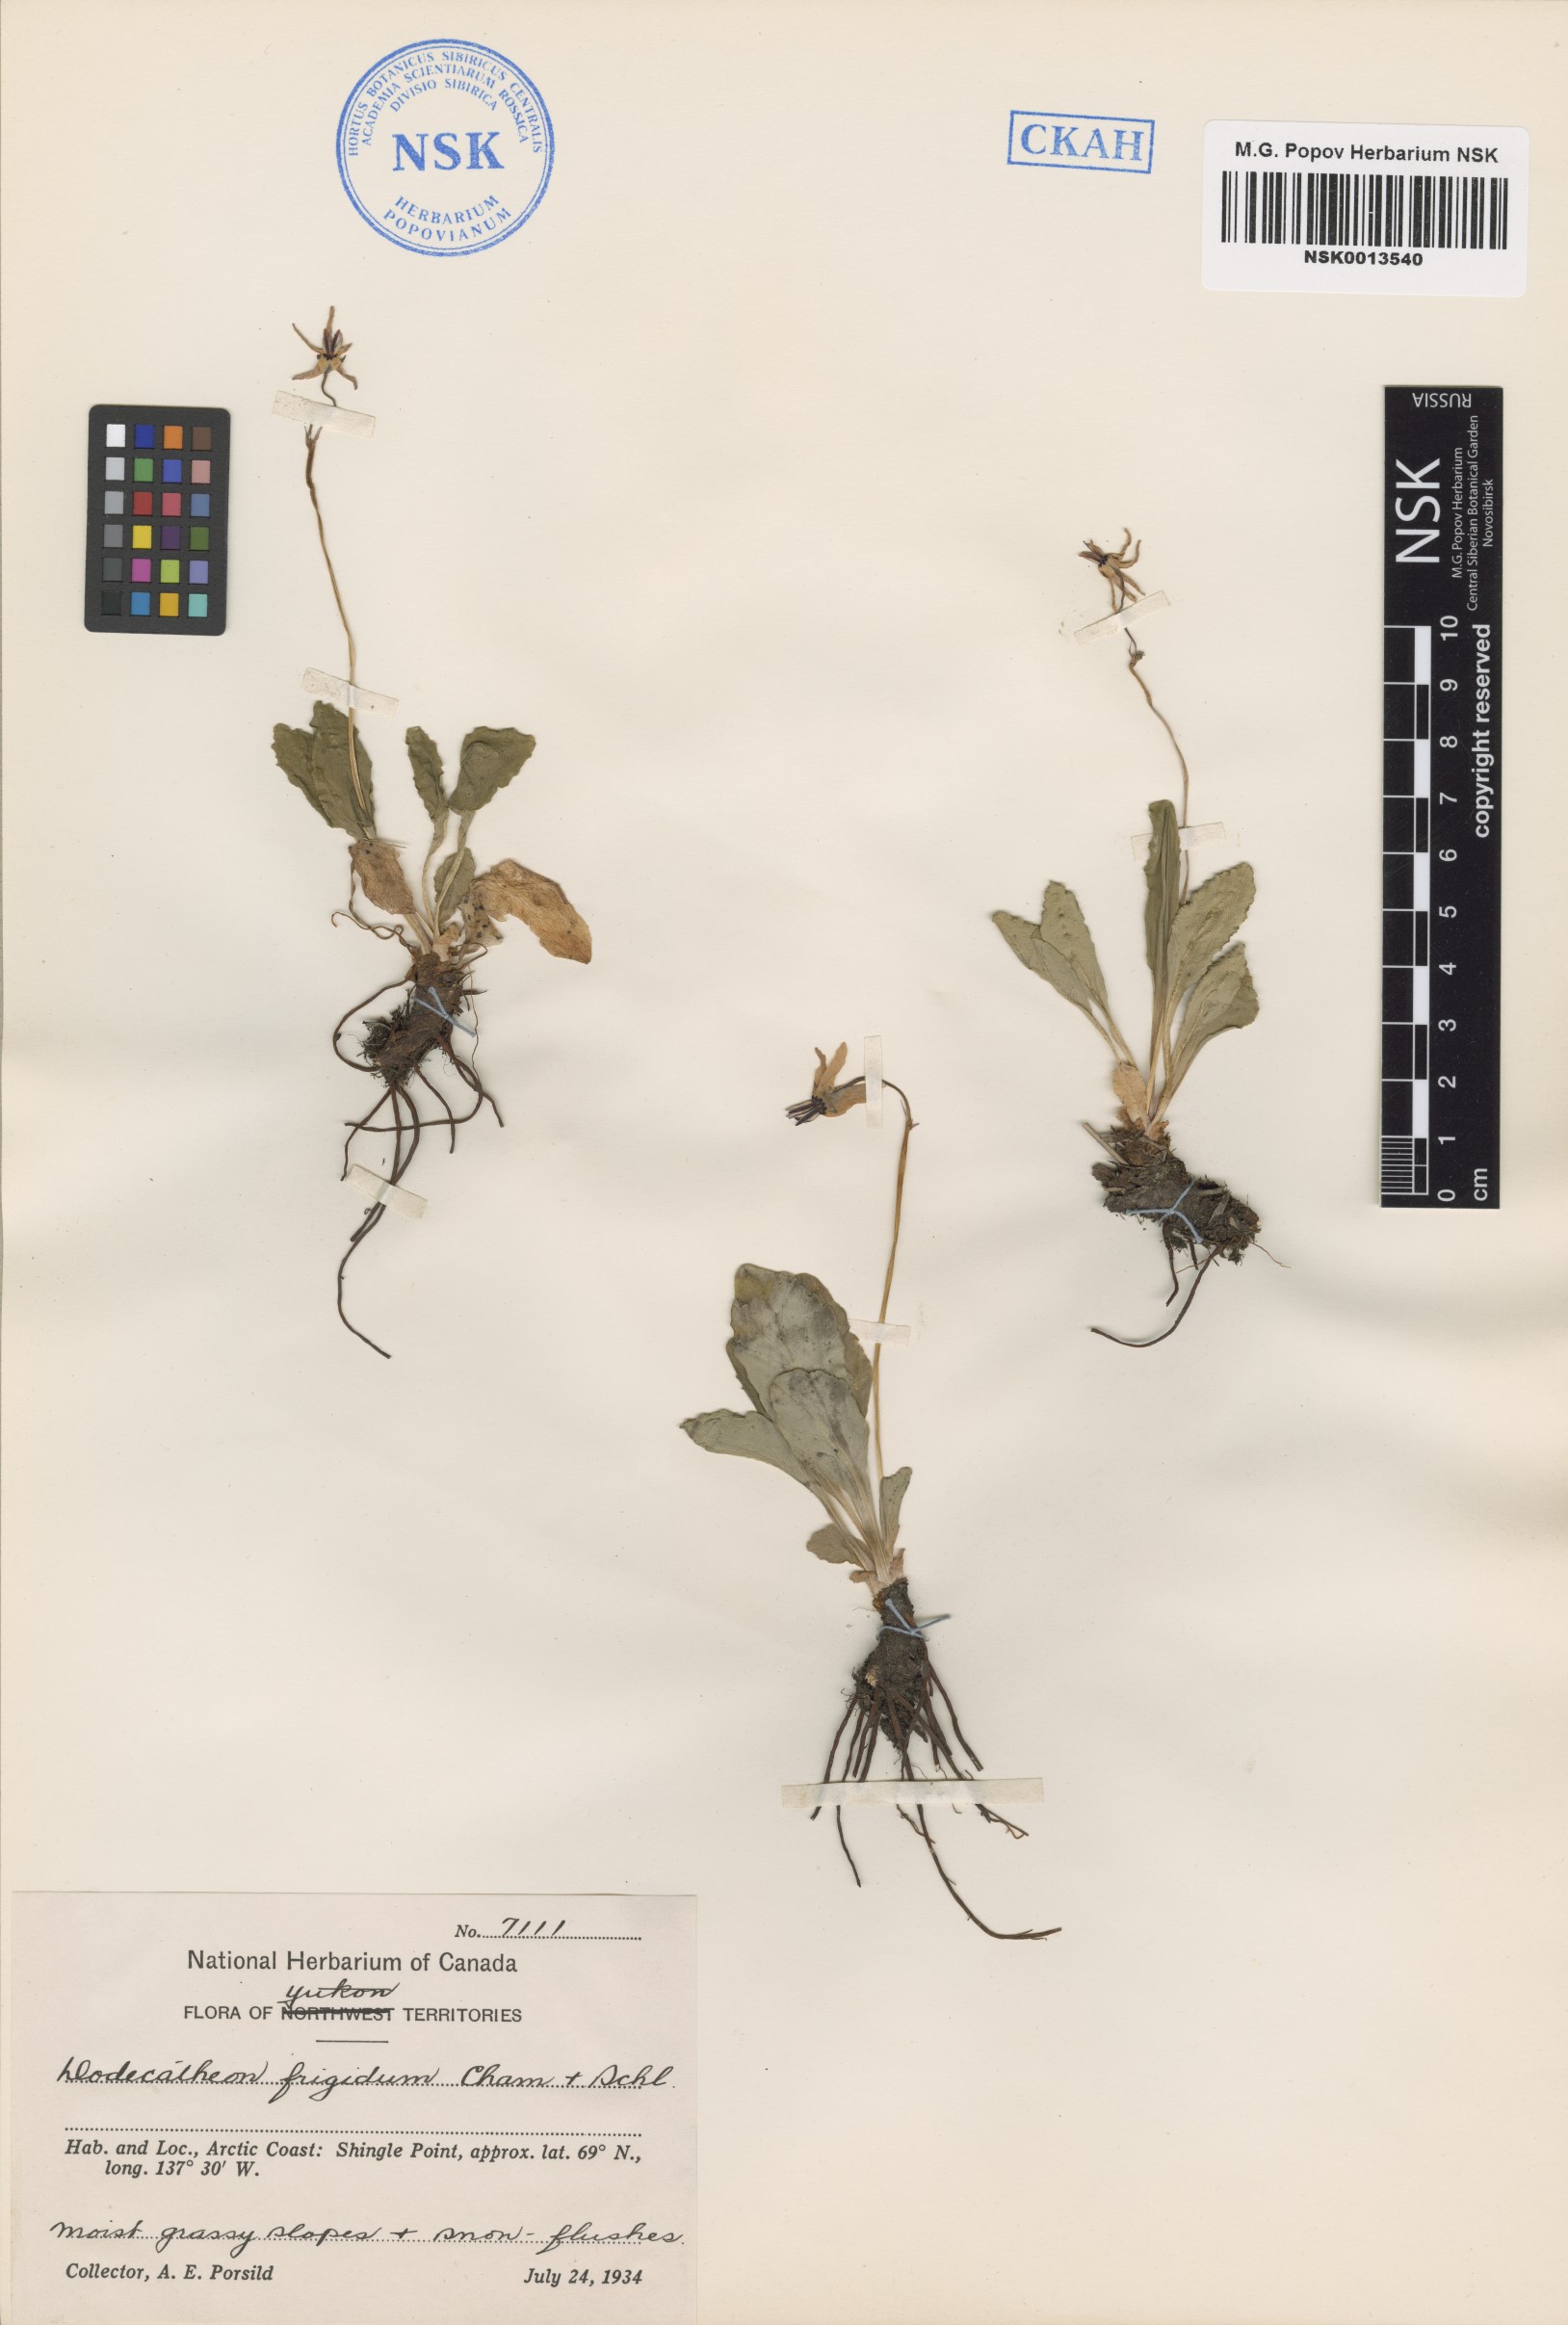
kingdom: Plantae
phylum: Tracheophyta
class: Magnoliopsida
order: Ericales
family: Primulaceae
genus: Dodecatheon
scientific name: Dodecatheon frigidum
